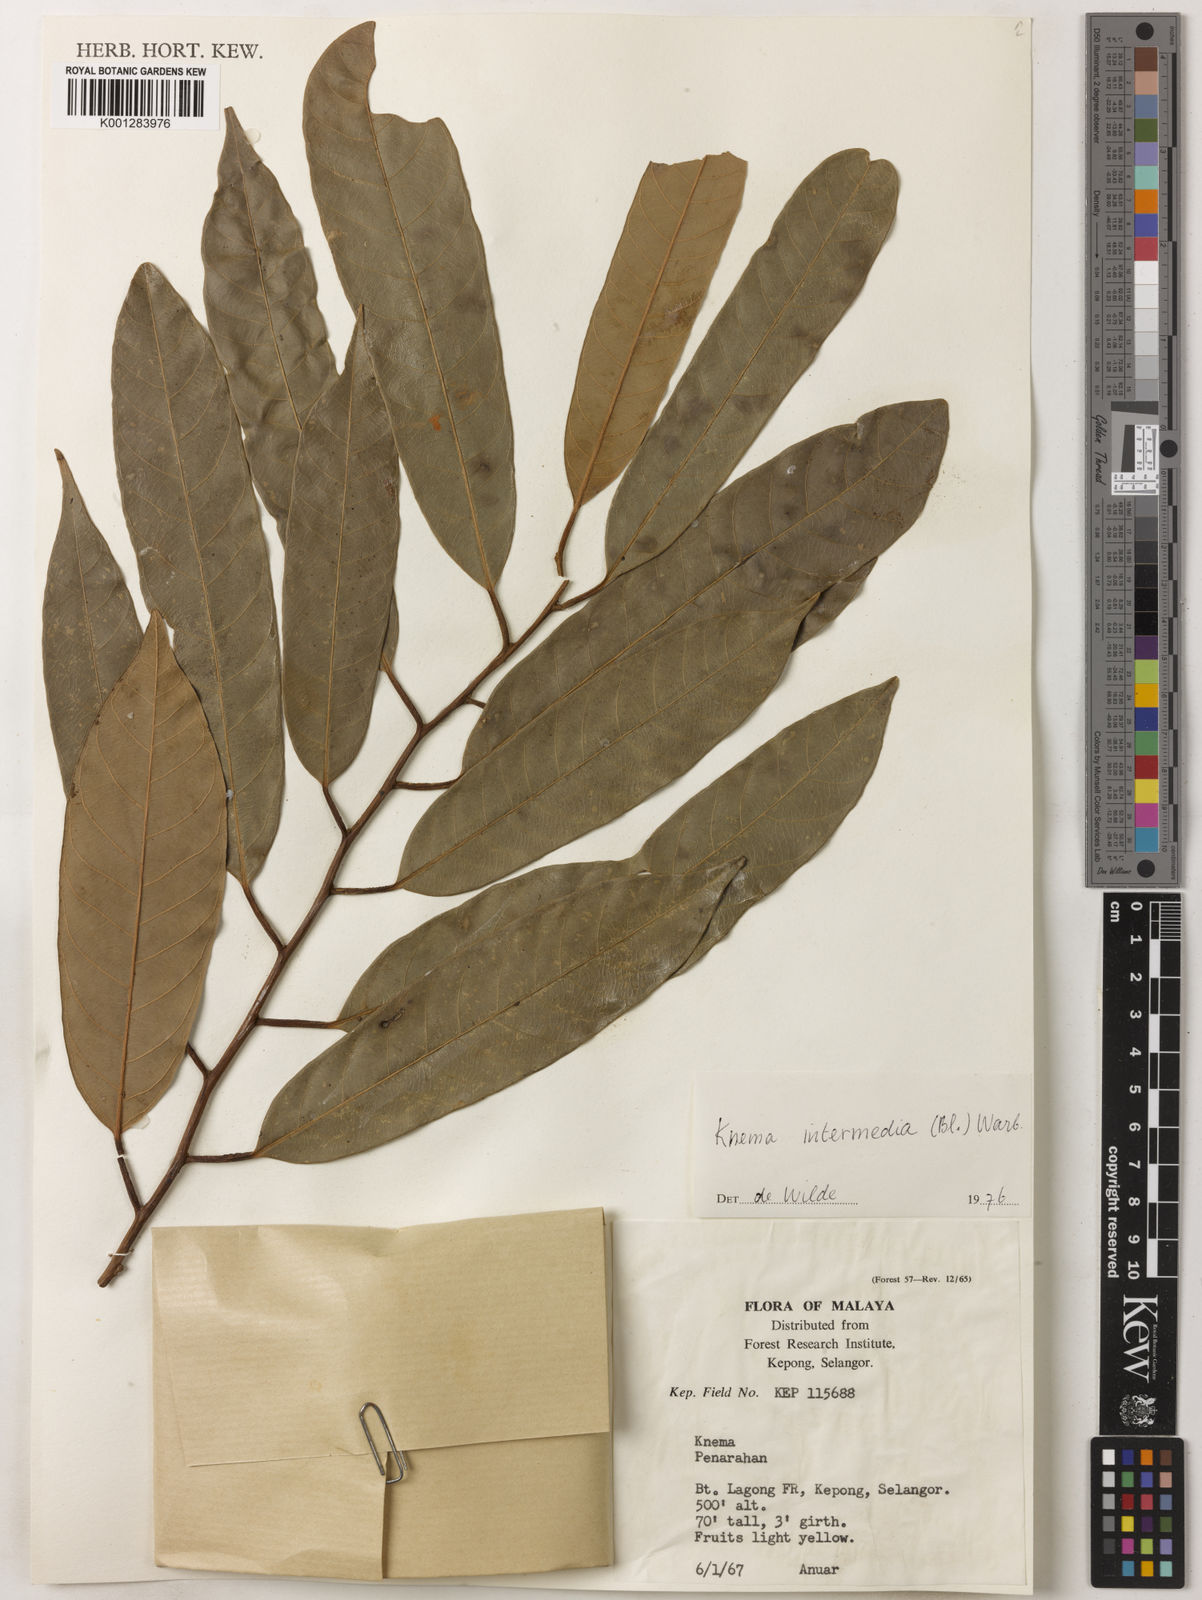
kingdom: Plantae
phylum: Tracheophyta
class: Magnoliopsida
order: Magnoliales
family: Myristicaceae
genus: Knema
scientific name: Knema intermedia
